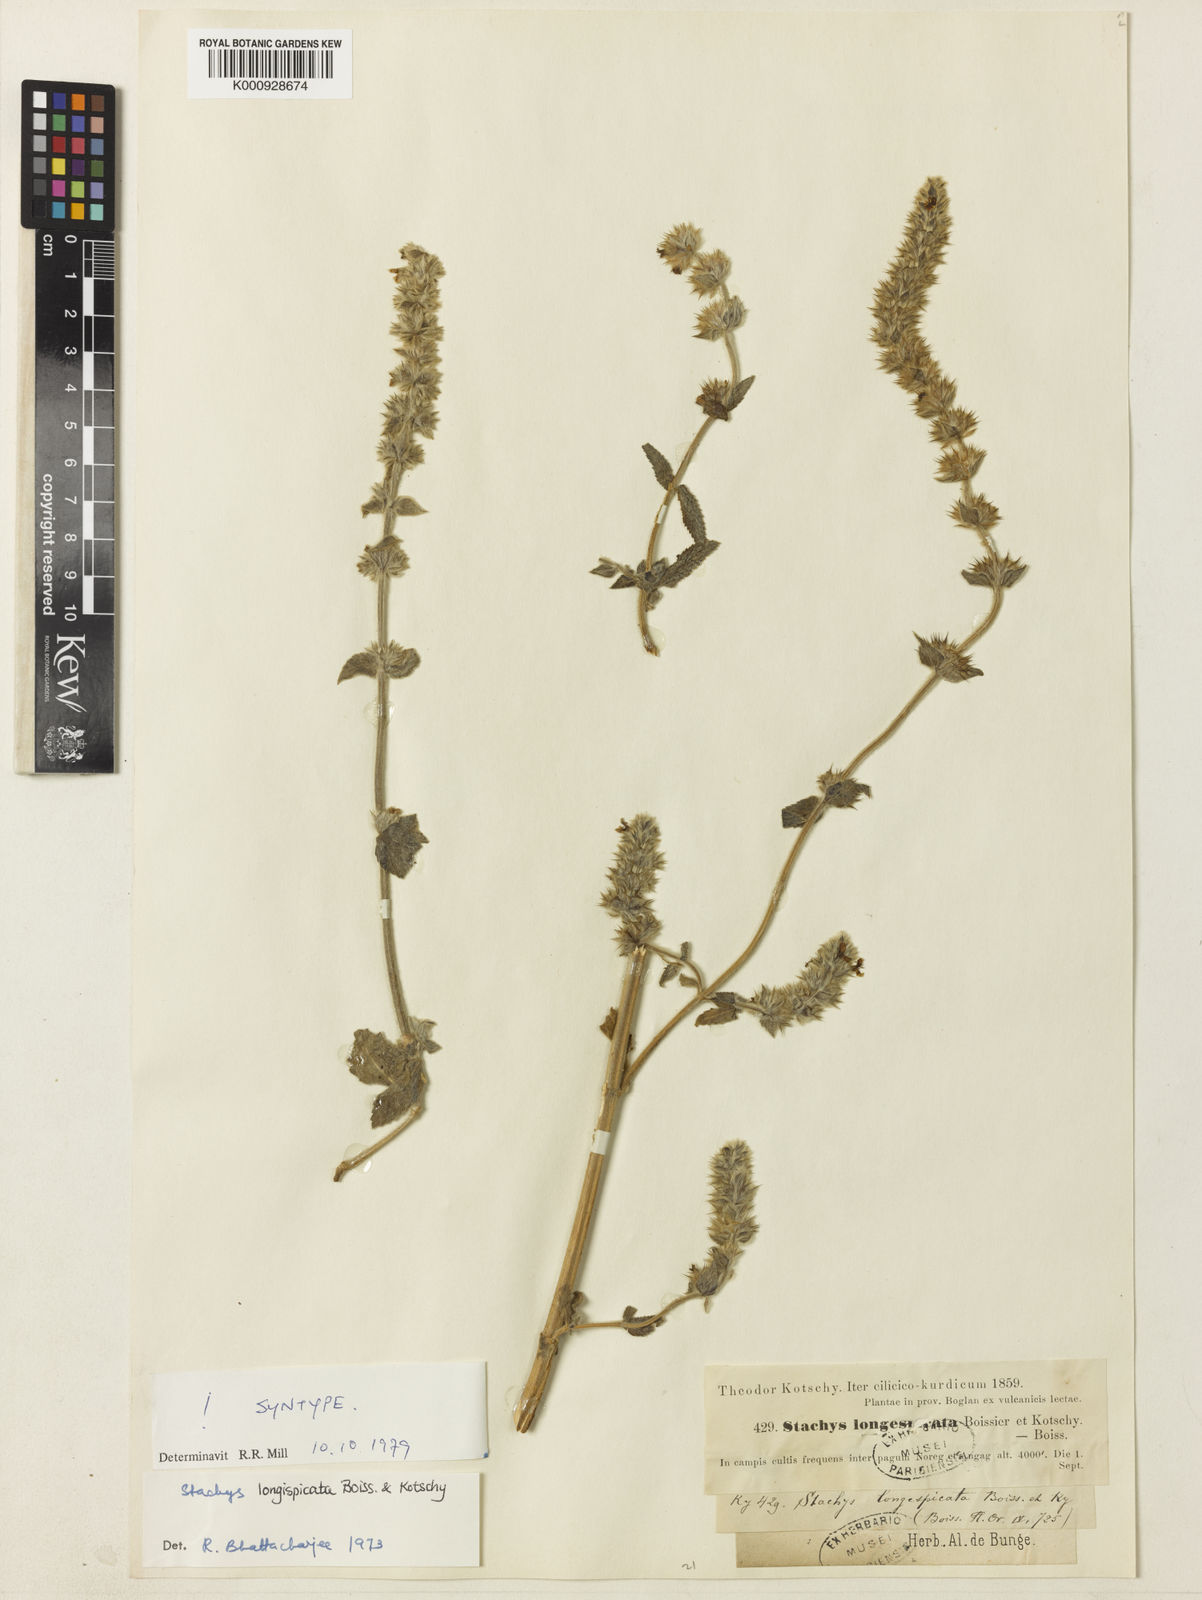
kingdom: Plantae
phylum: Tracheophyta
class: Magnoliopsida
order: Lamiales
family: Lamiaceae
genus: Stachys
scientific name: Stachys longispicata
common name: Longspike hedgenettle
